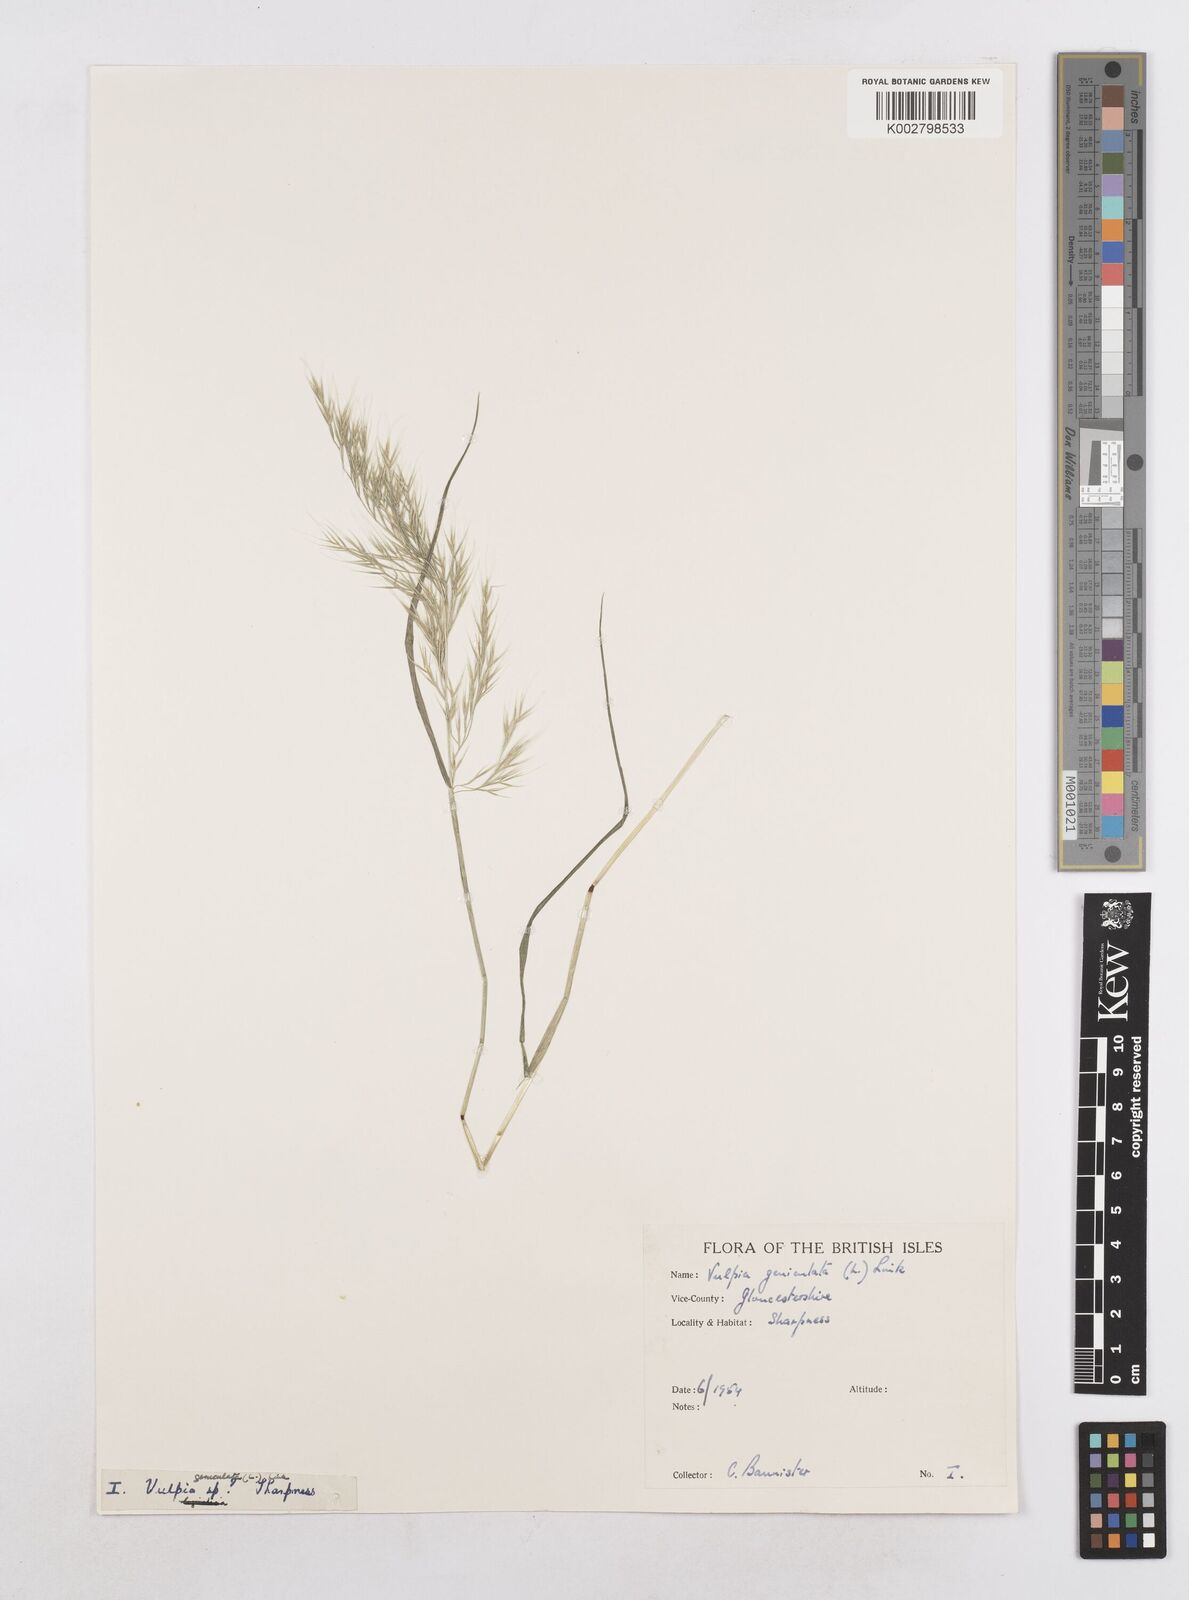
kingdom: Plantae
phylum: Tracheophyta
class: Liliopsida
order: Poales
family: Poaceae
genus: Festuca
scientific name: Festuca geniculata
